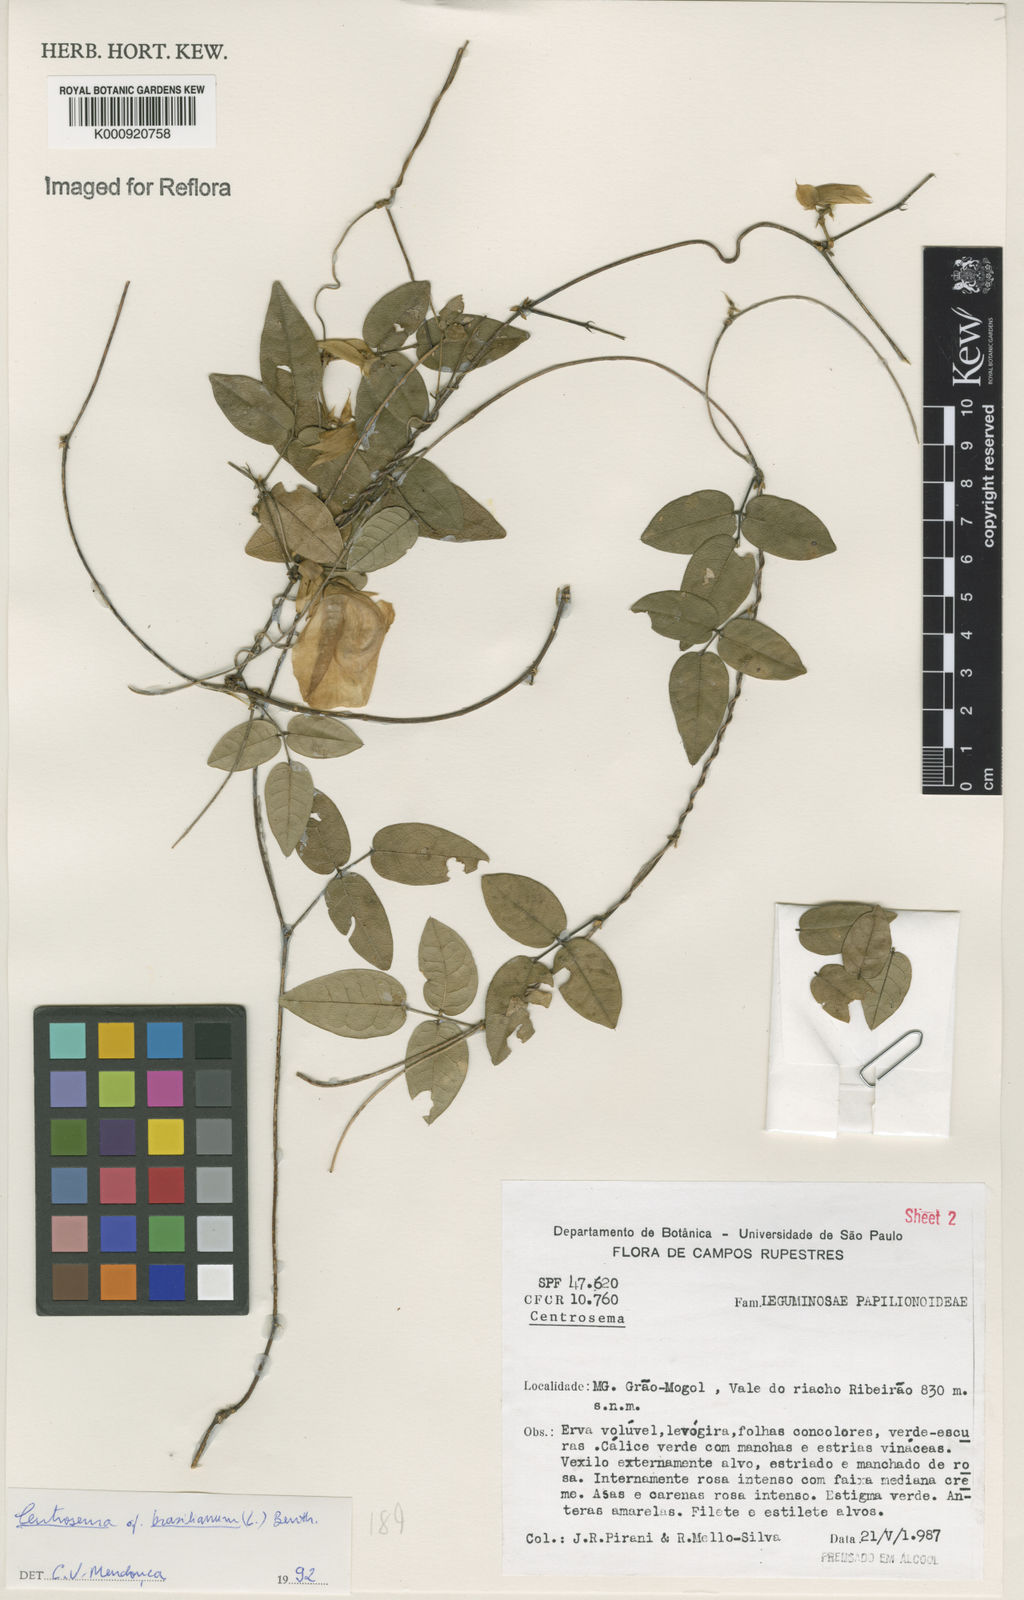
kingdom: Plantae
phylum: Tracheophyta
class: Magnoliopsida
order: Fabales
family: Fabaceae
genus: Centrosema
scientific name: Centrosema brasilianum
